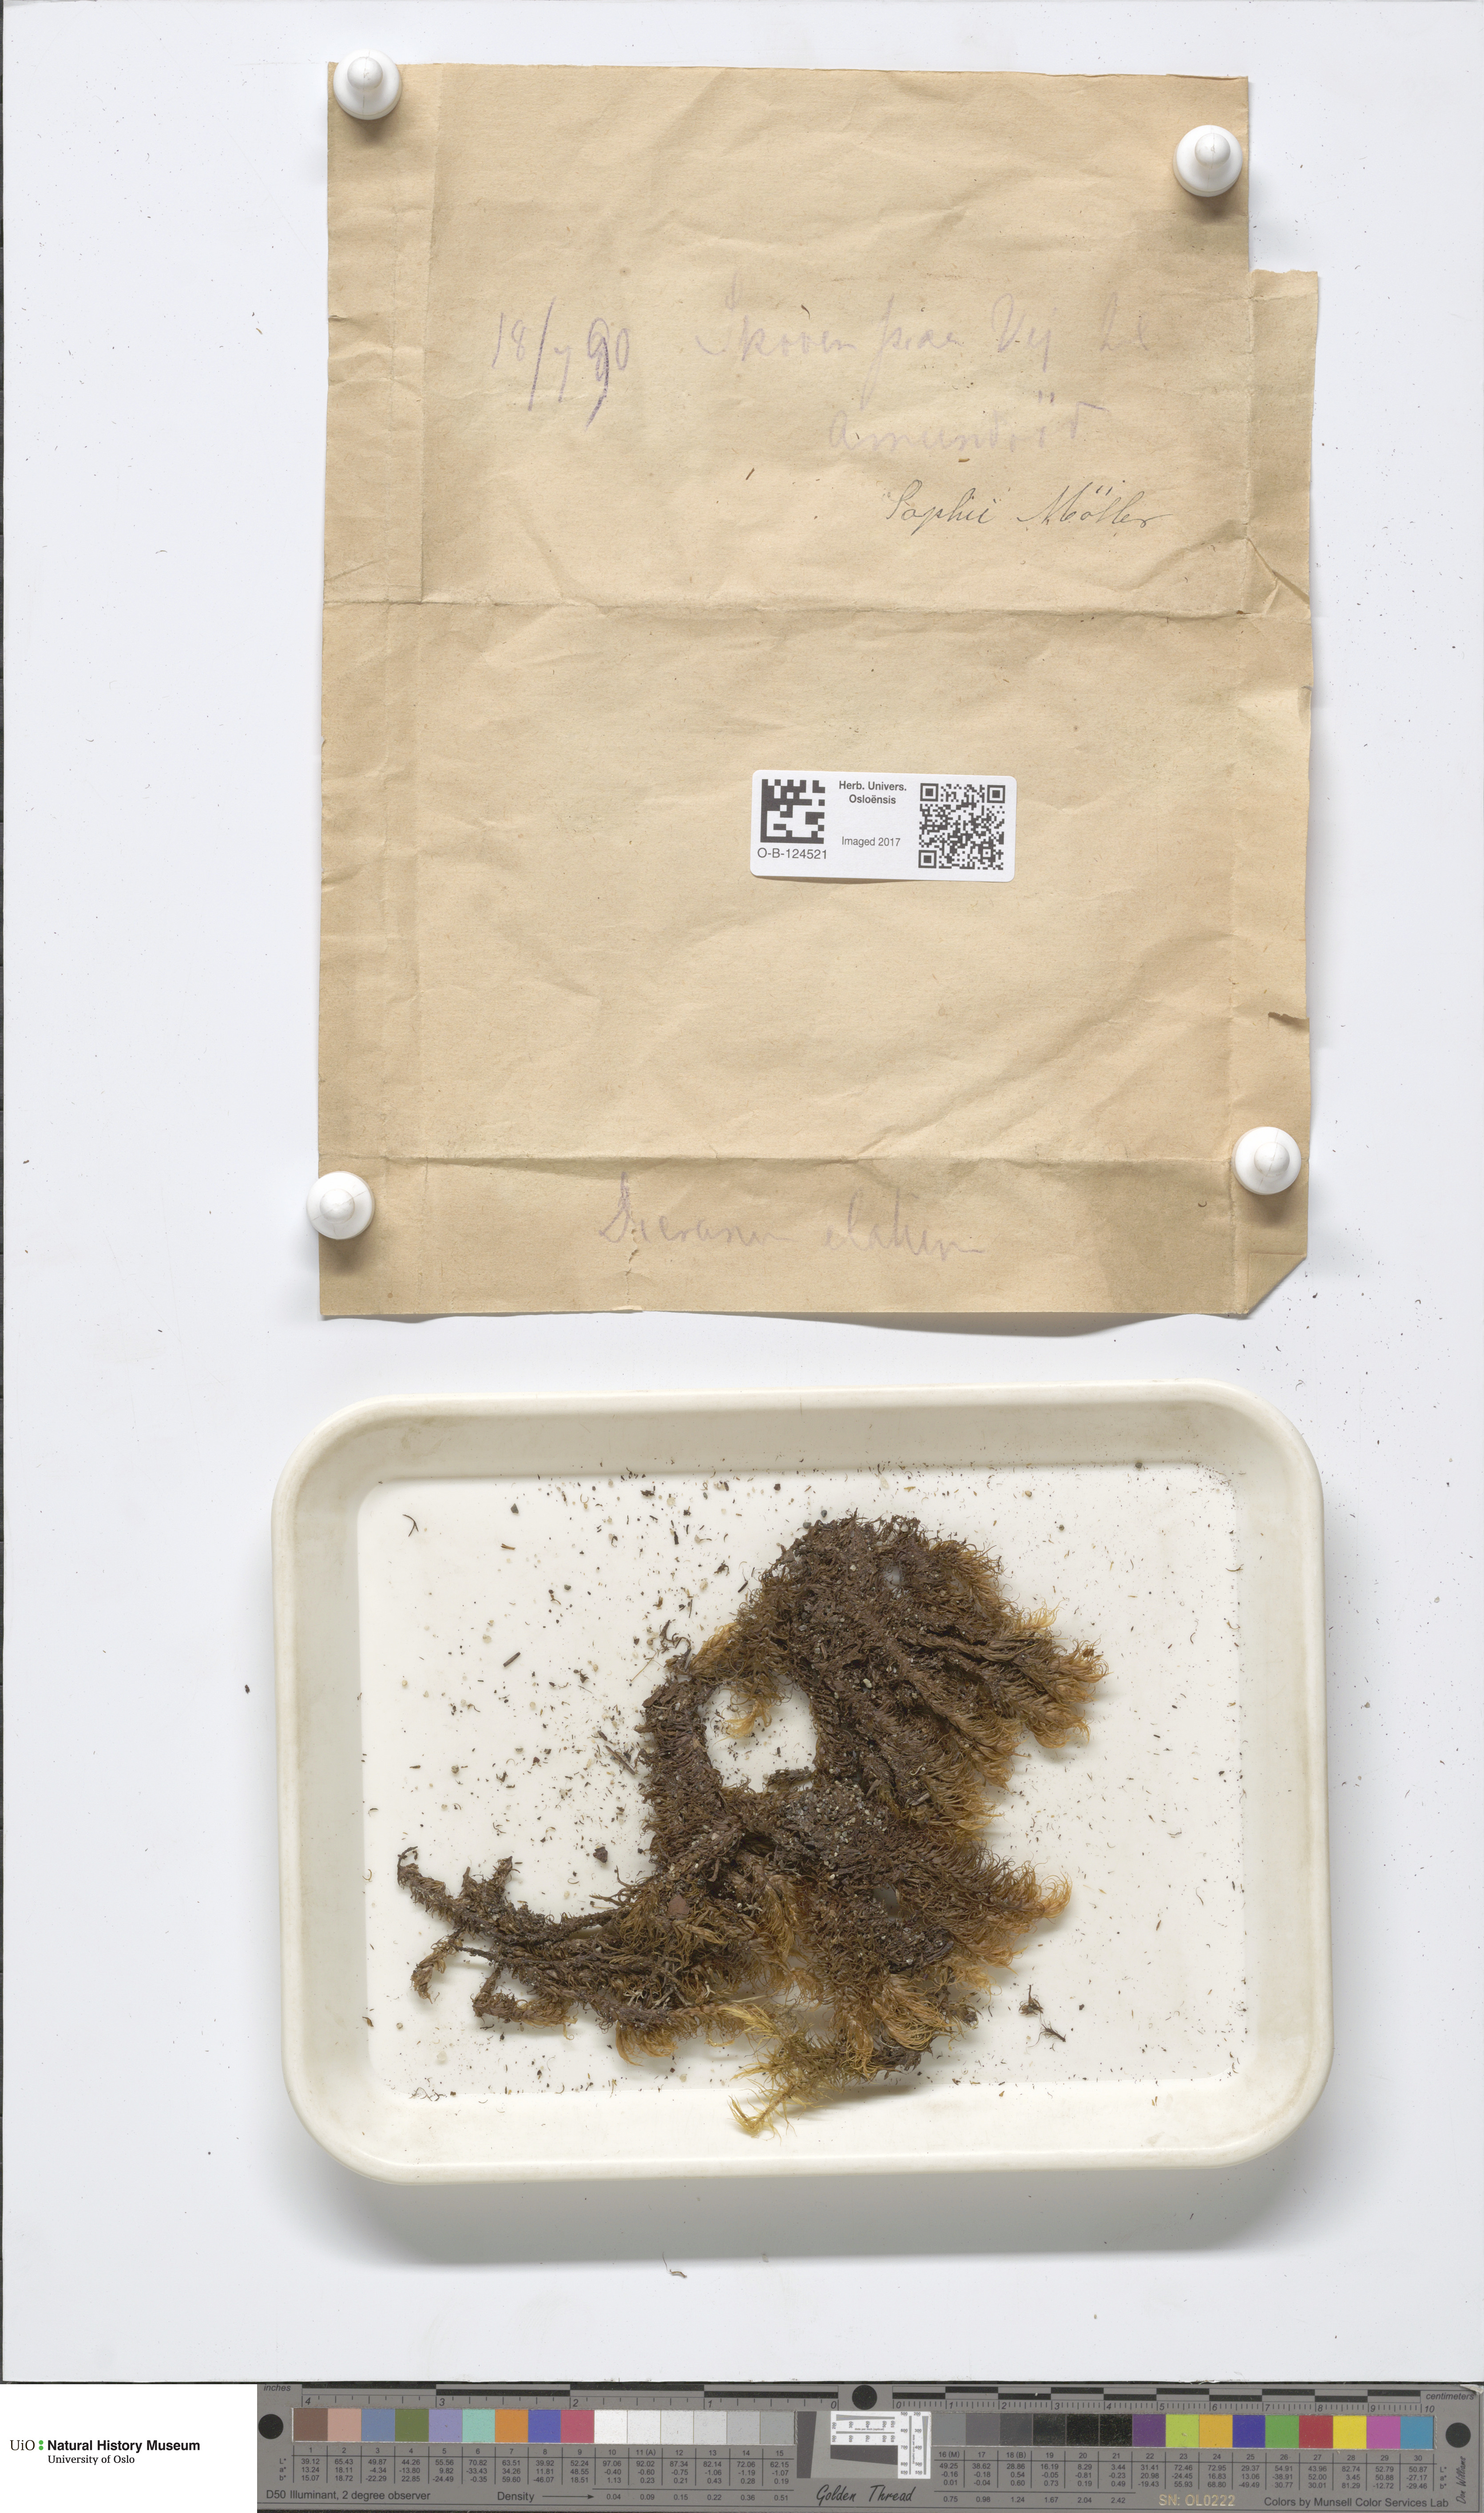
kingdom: Plantae
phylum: Bryophyta
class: Bryopsida
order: Dicranales
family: Dicranaceae
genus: Dicranum
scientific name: Dicranum drummondii
